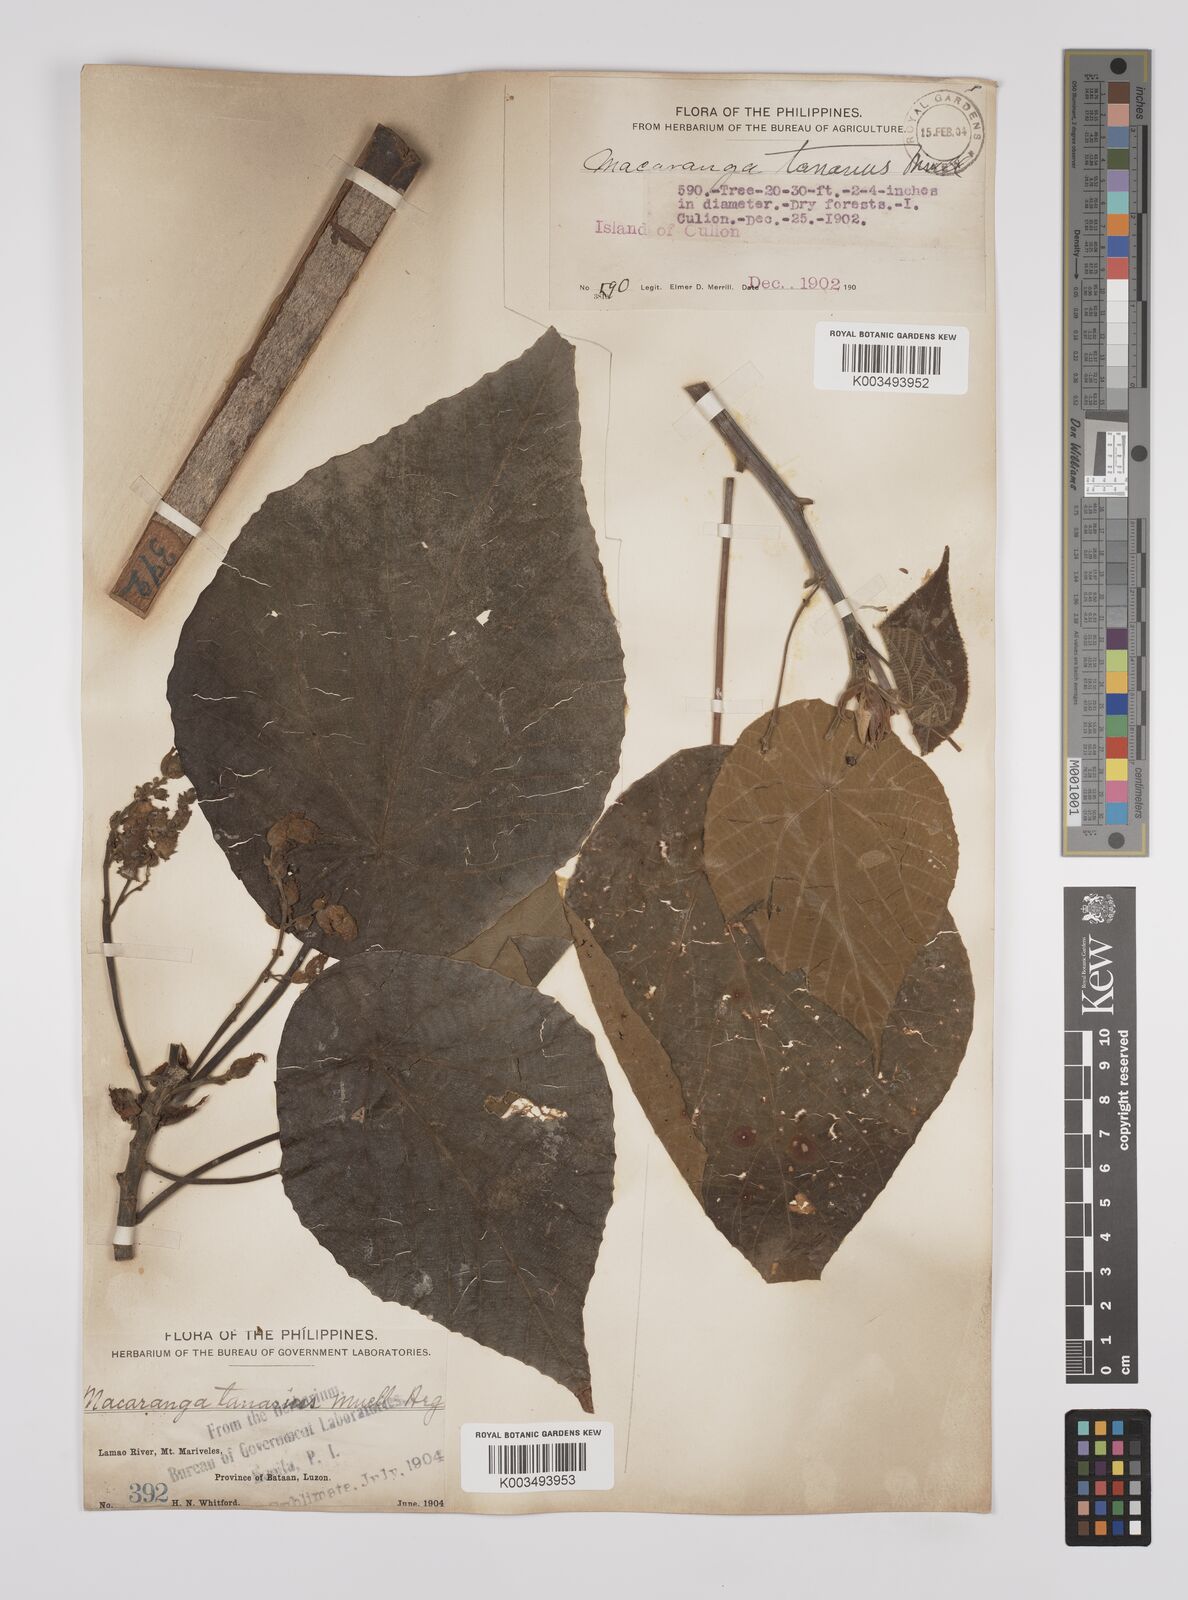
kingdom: Plantae
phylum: Tracheophyta
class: Magnoliopsida
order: Malpighiales
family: Euphorbiaceae
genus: Macaranga
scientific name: Macaranga tanarius
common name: Parasol leaf tree
